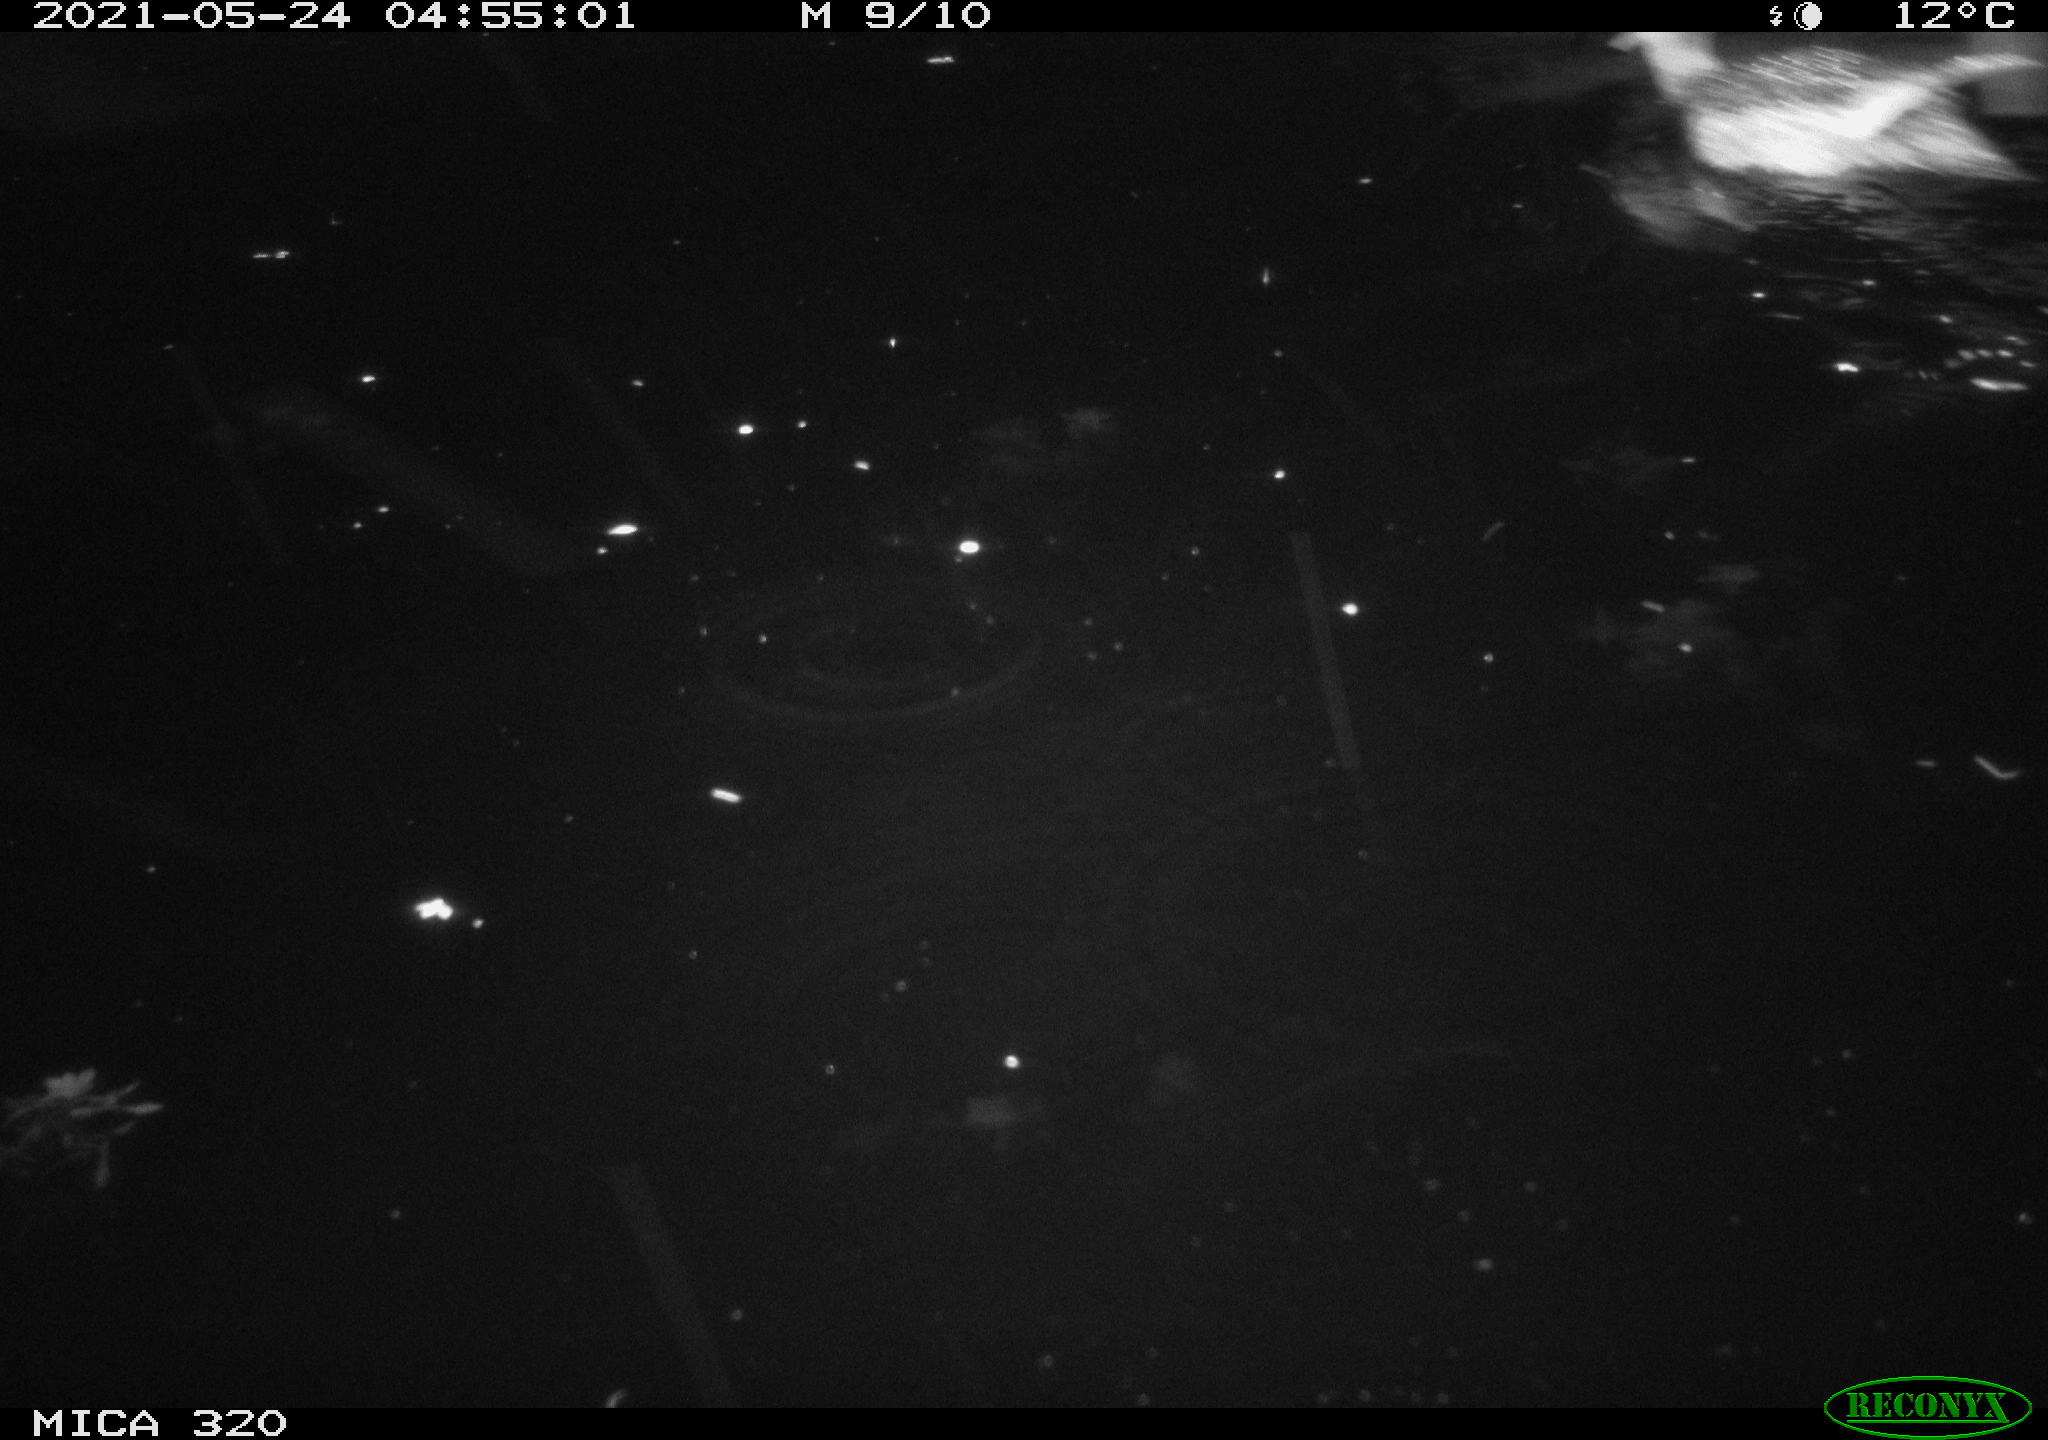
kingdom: Animalia
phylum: Chordata
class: Aves
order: Anseriformes
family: Anatidae
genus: Mareca
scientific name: Mareca strepera
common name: Gadwall
